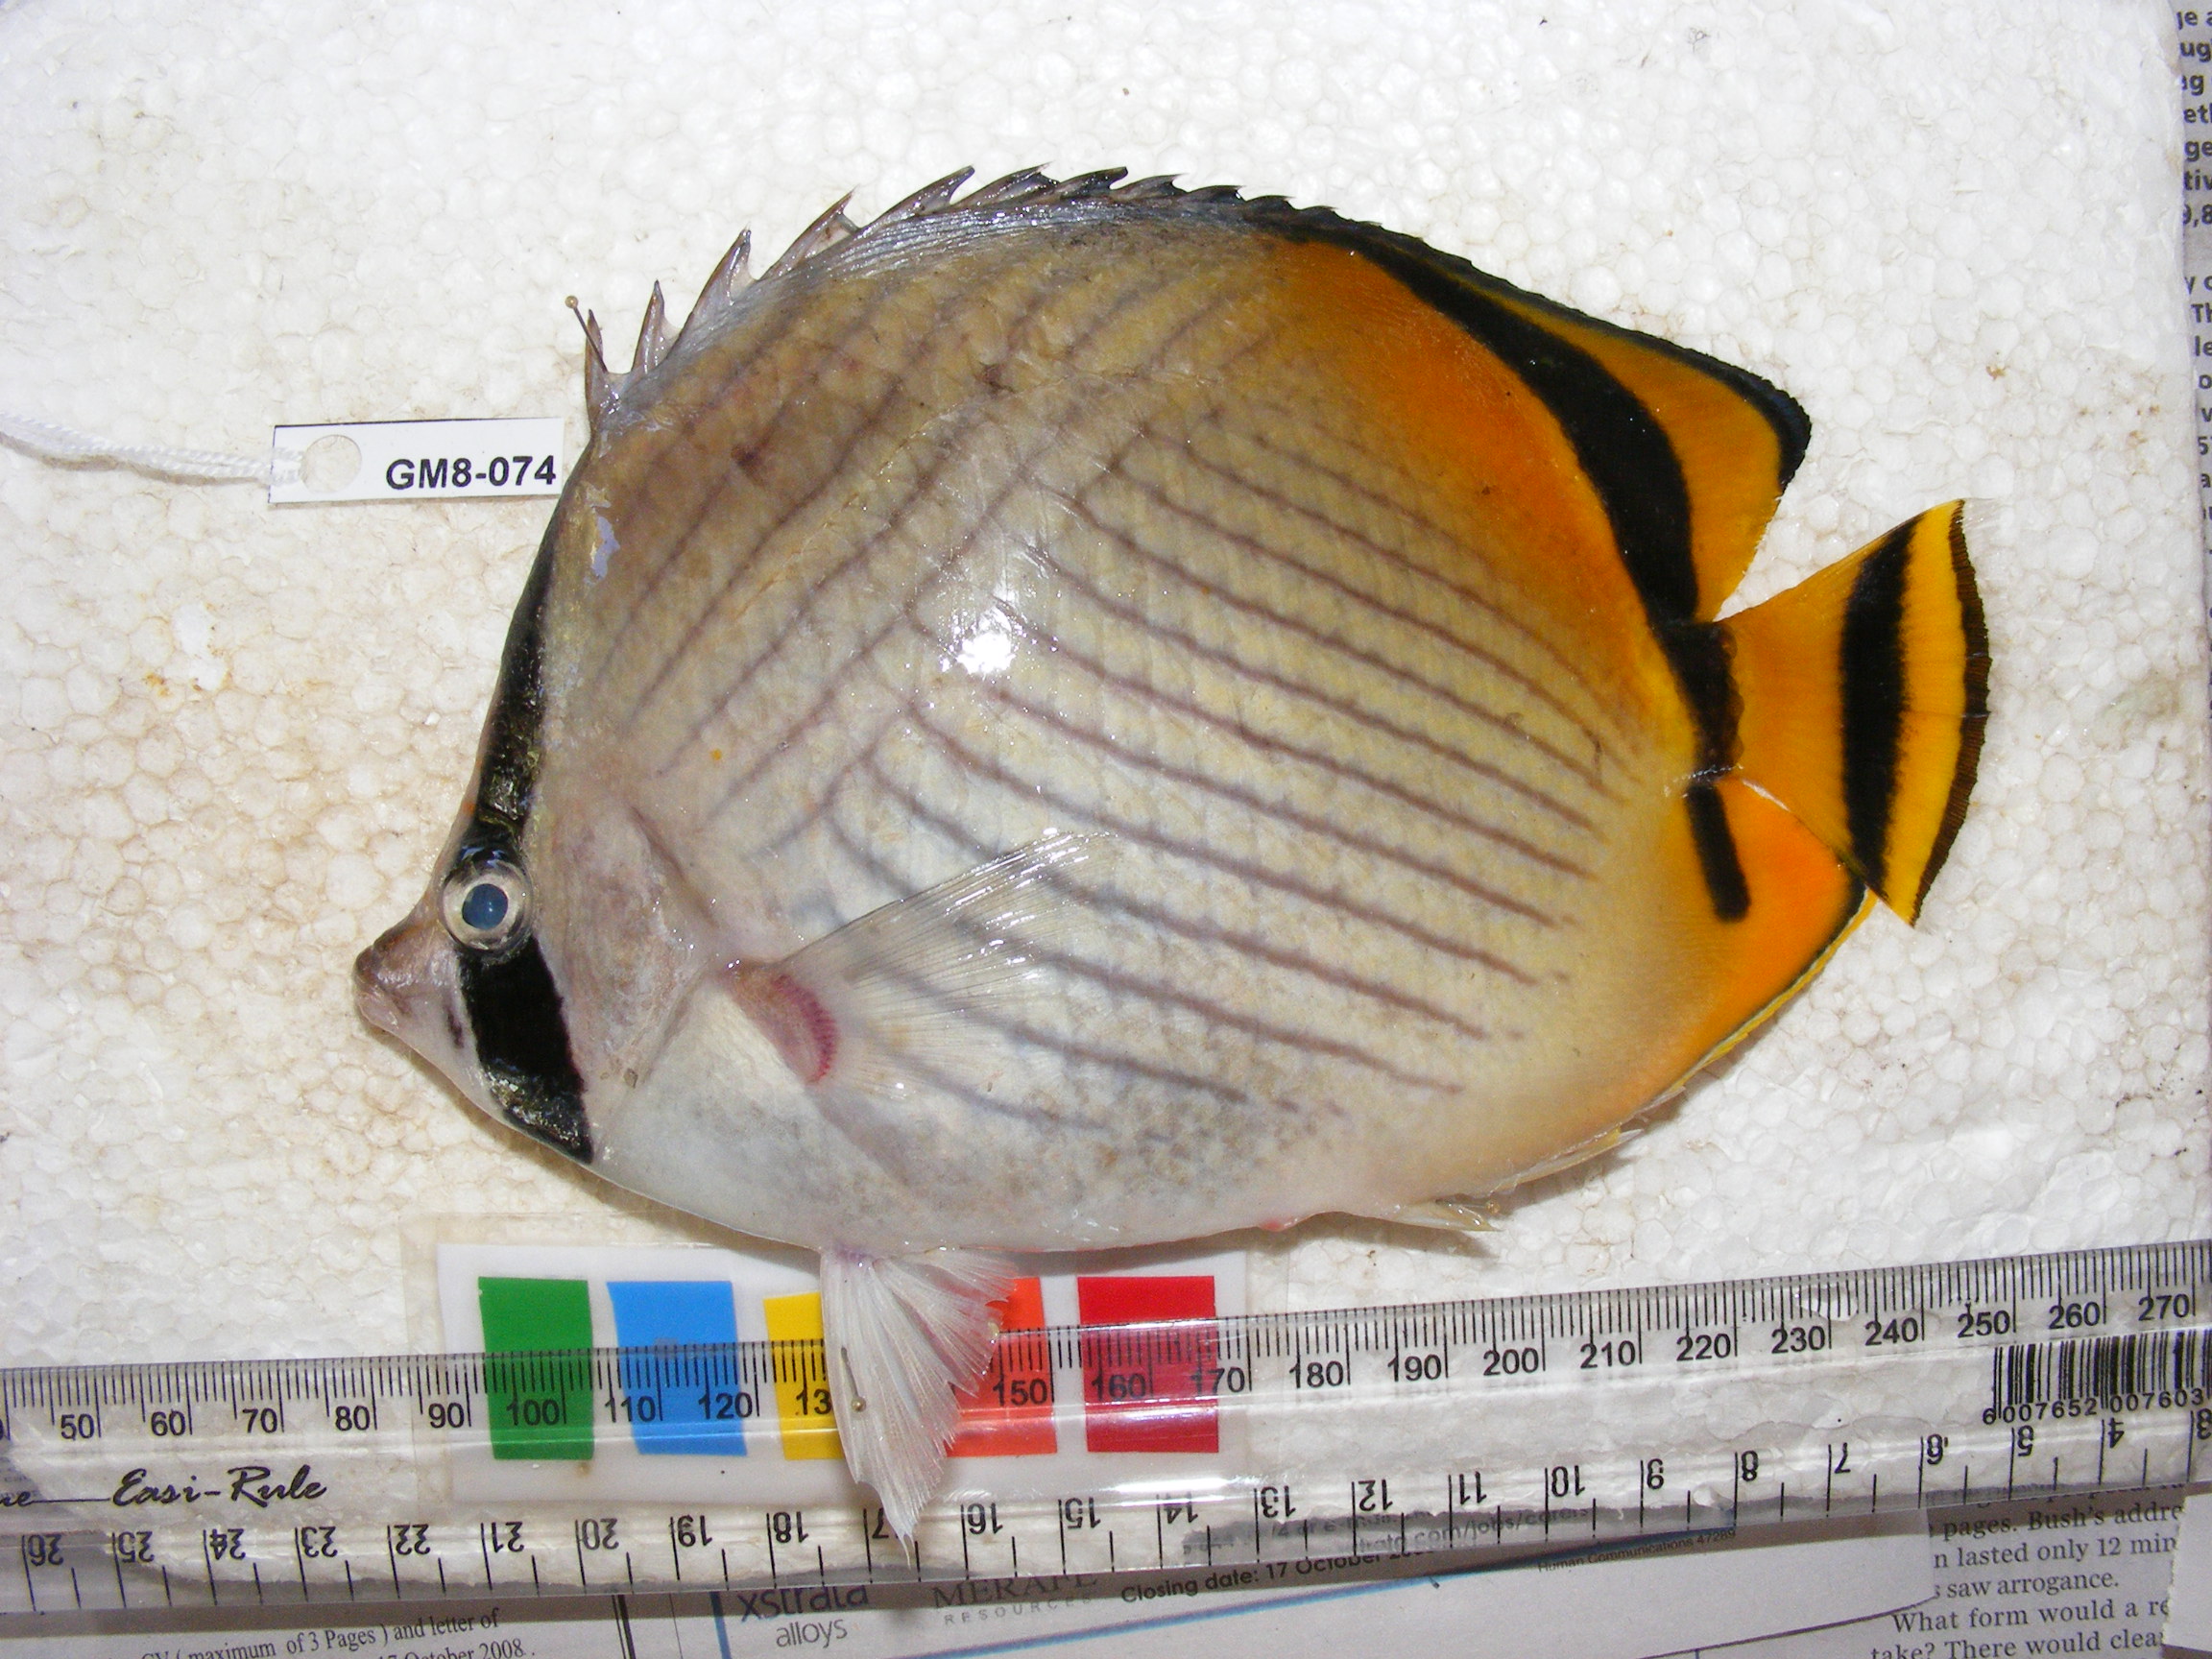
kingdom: Animalia
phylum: Chordata
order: Perciformes
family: Chaetodontidae
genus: Chaetodon
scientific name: Chaetodon vagabundus
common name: Vagabond butterflyfish
